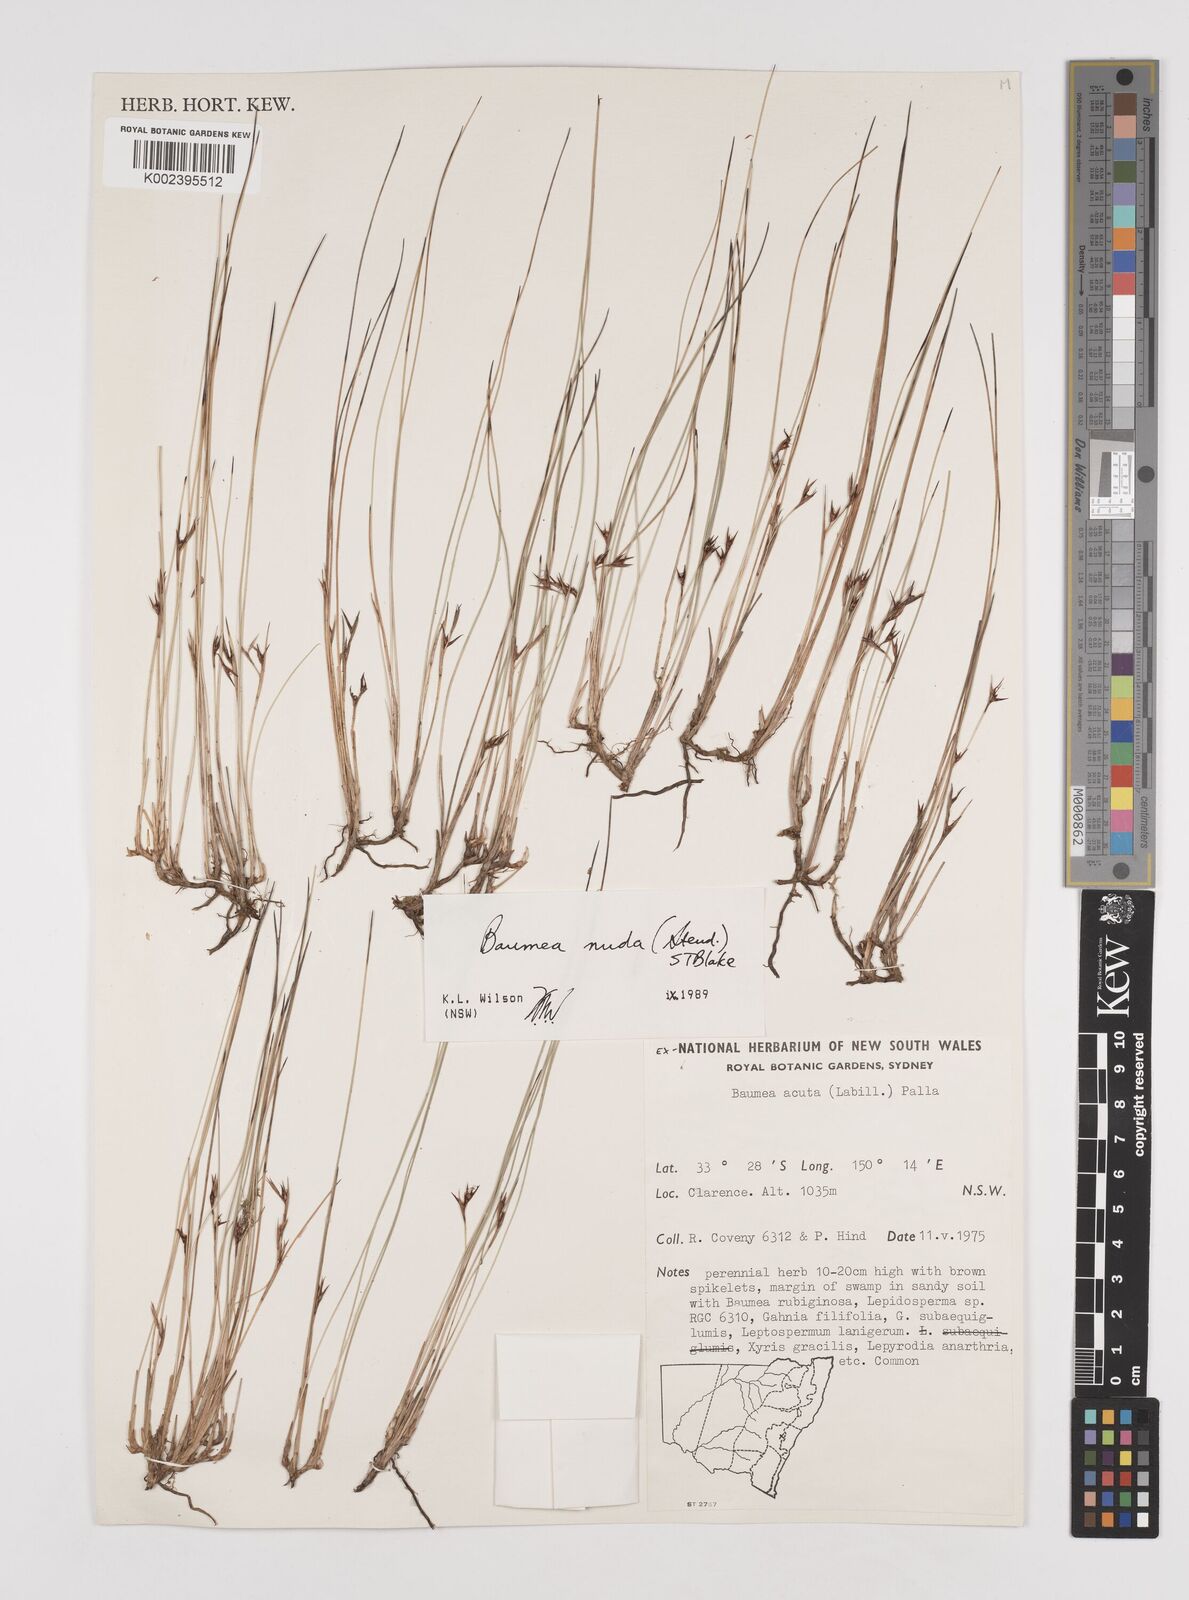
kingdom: Plantae
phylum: Tracheophyta
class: Liliopsida
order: Poales
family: Cyperaceae
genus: Machaerina
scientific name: Machaerina nuda
